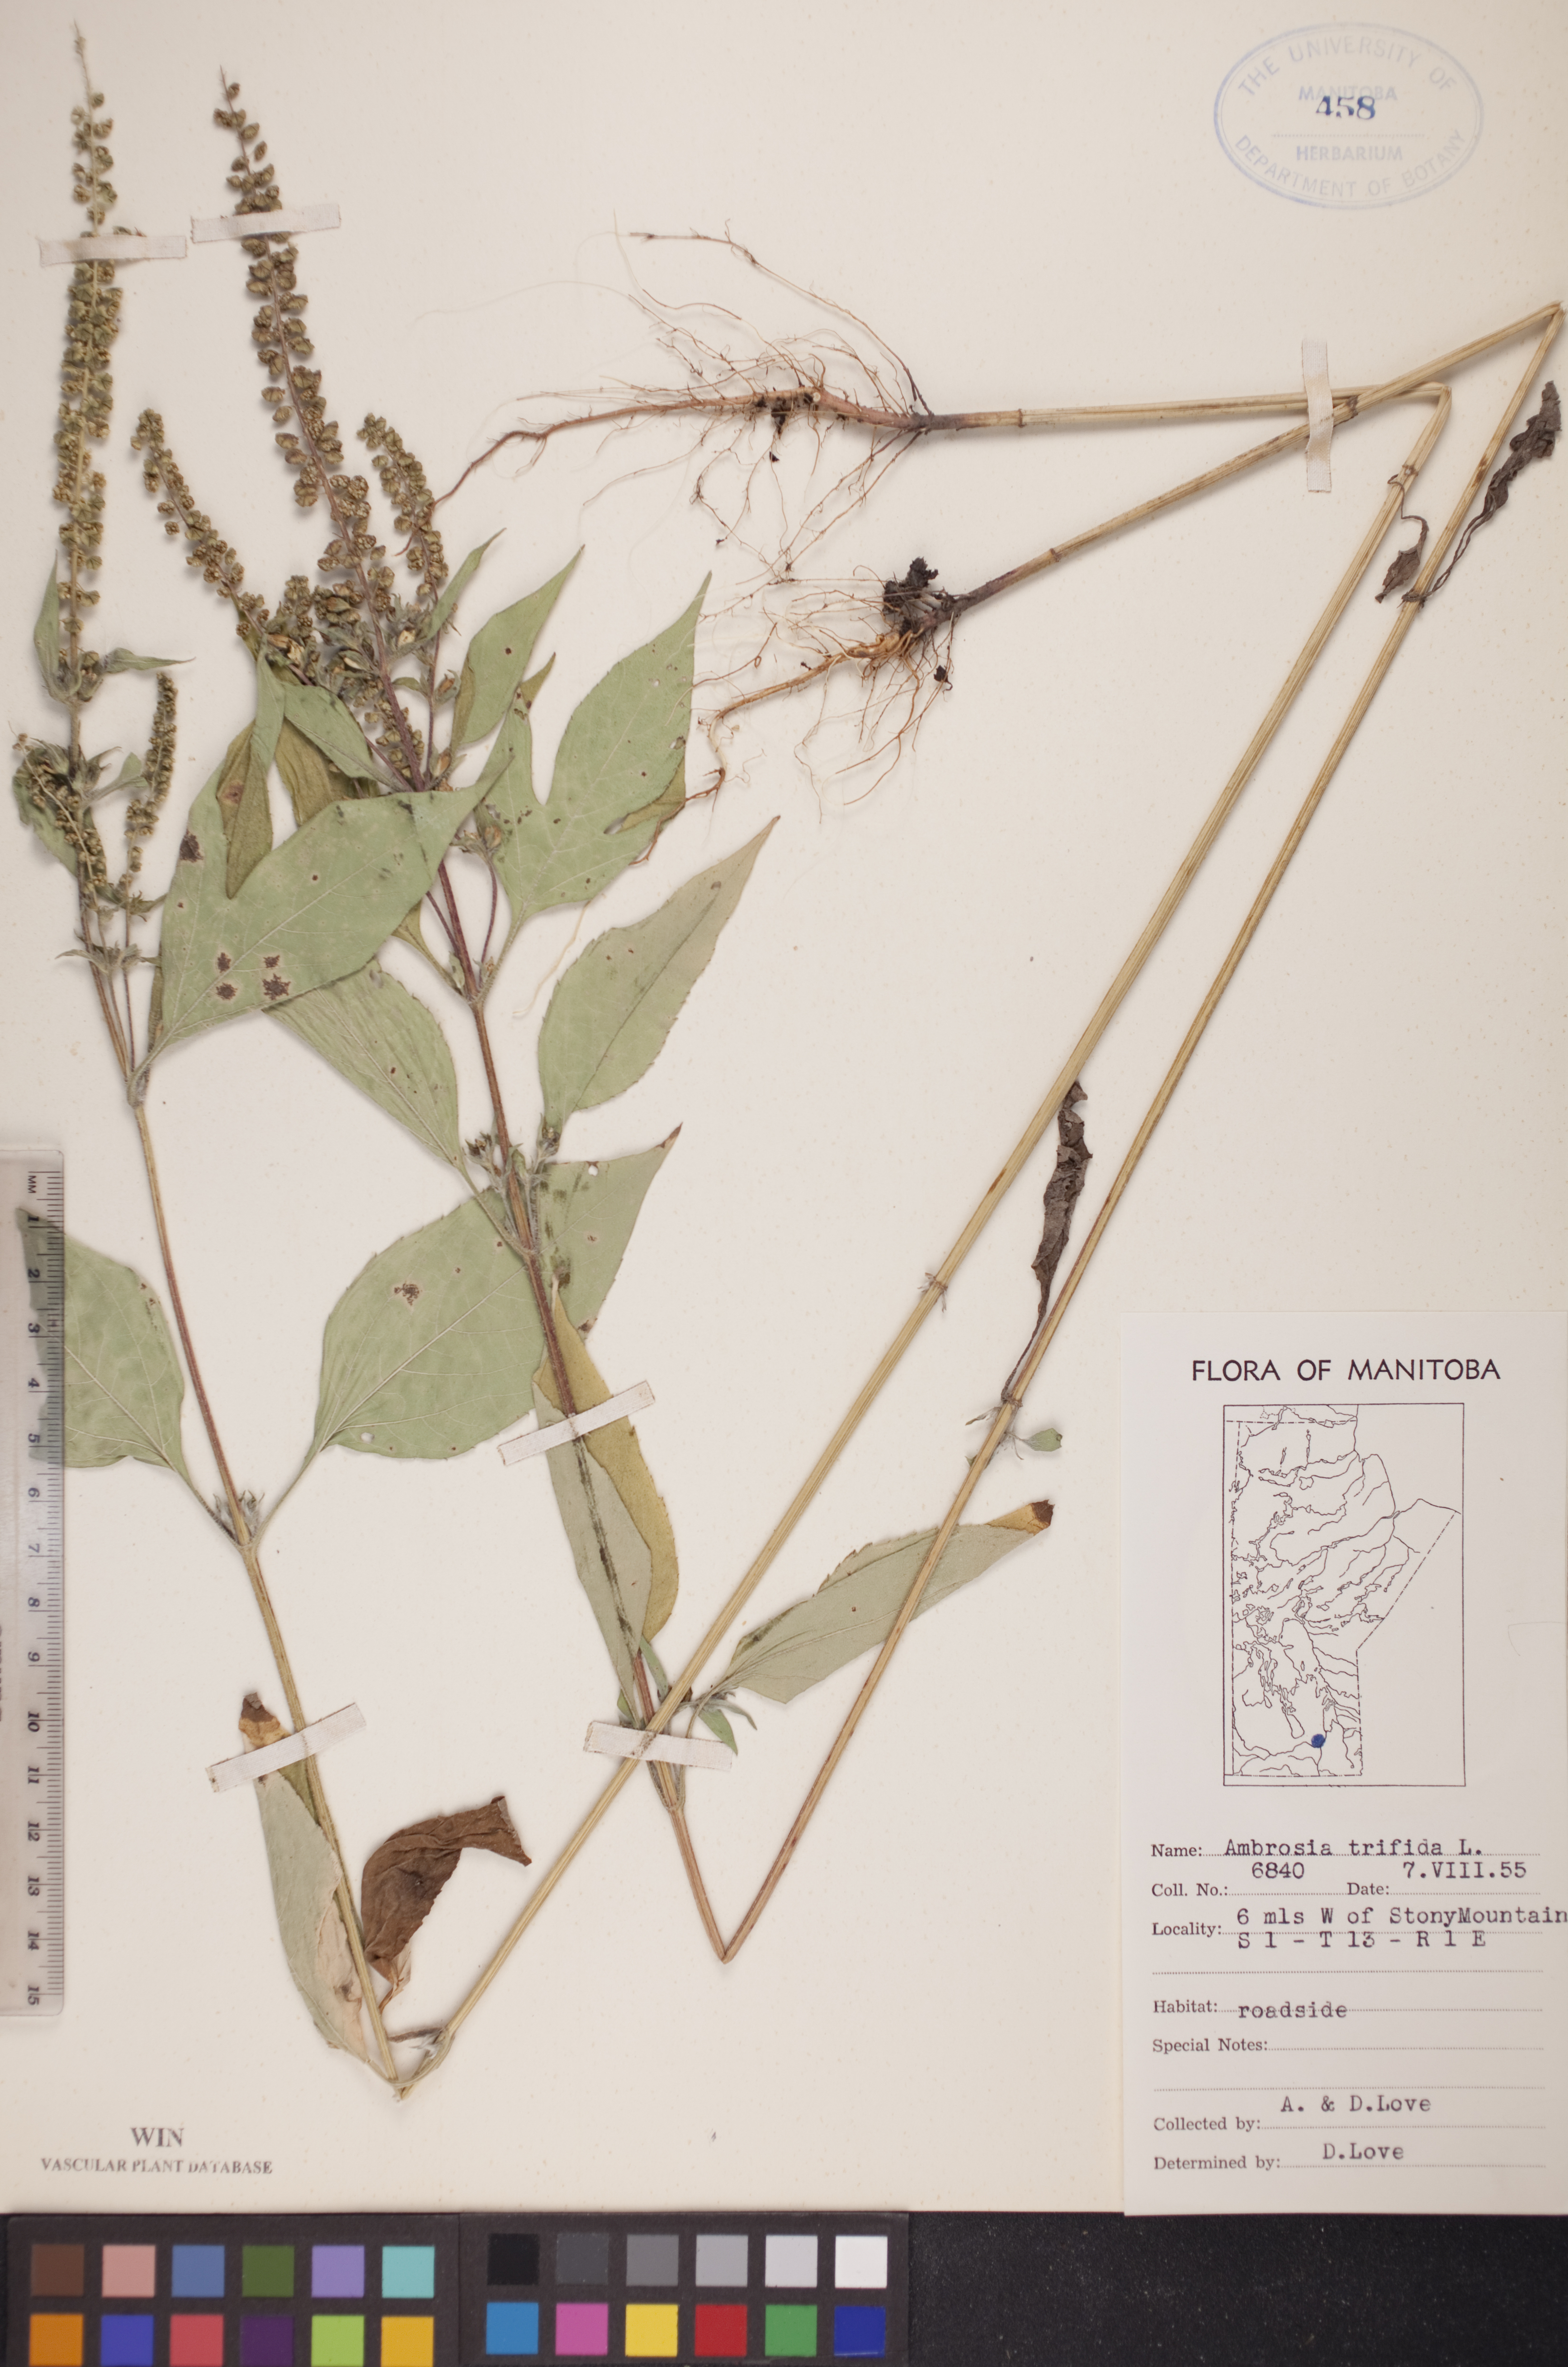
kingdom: Plantae
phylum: Tracheophyta
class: Magnoliopsida
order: Asterales
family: Asteraceae
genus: Ambrosia
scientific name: Ambrosia trifida
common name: Giant ragweed
